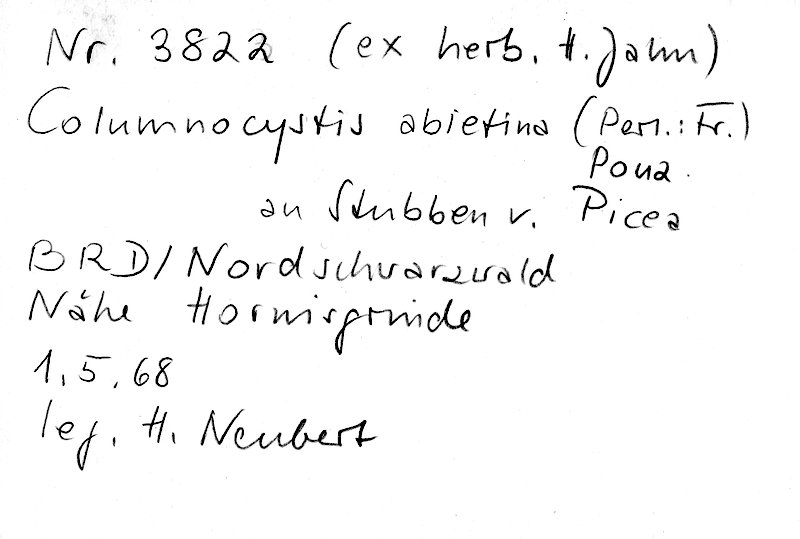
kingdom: Plantae
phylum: Tracheophyta
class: Pinopsida
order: Pinales
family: Pinaceae
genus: Picea
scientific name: Picea
